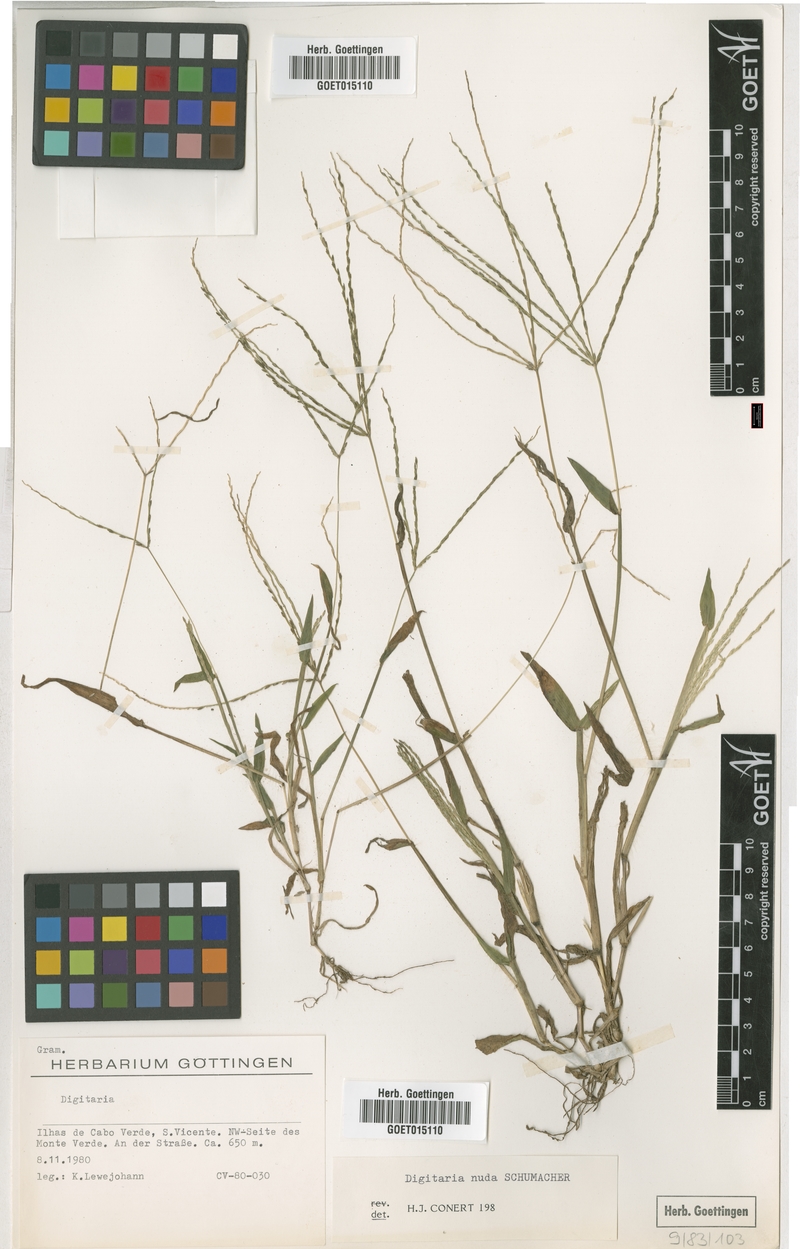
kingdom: Plantae
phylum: Tracheophyta
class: Liliopsida
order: Poales
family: Poaceae
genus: Digitaria
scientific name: Digitaria nuda
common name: Naked crabgrass
